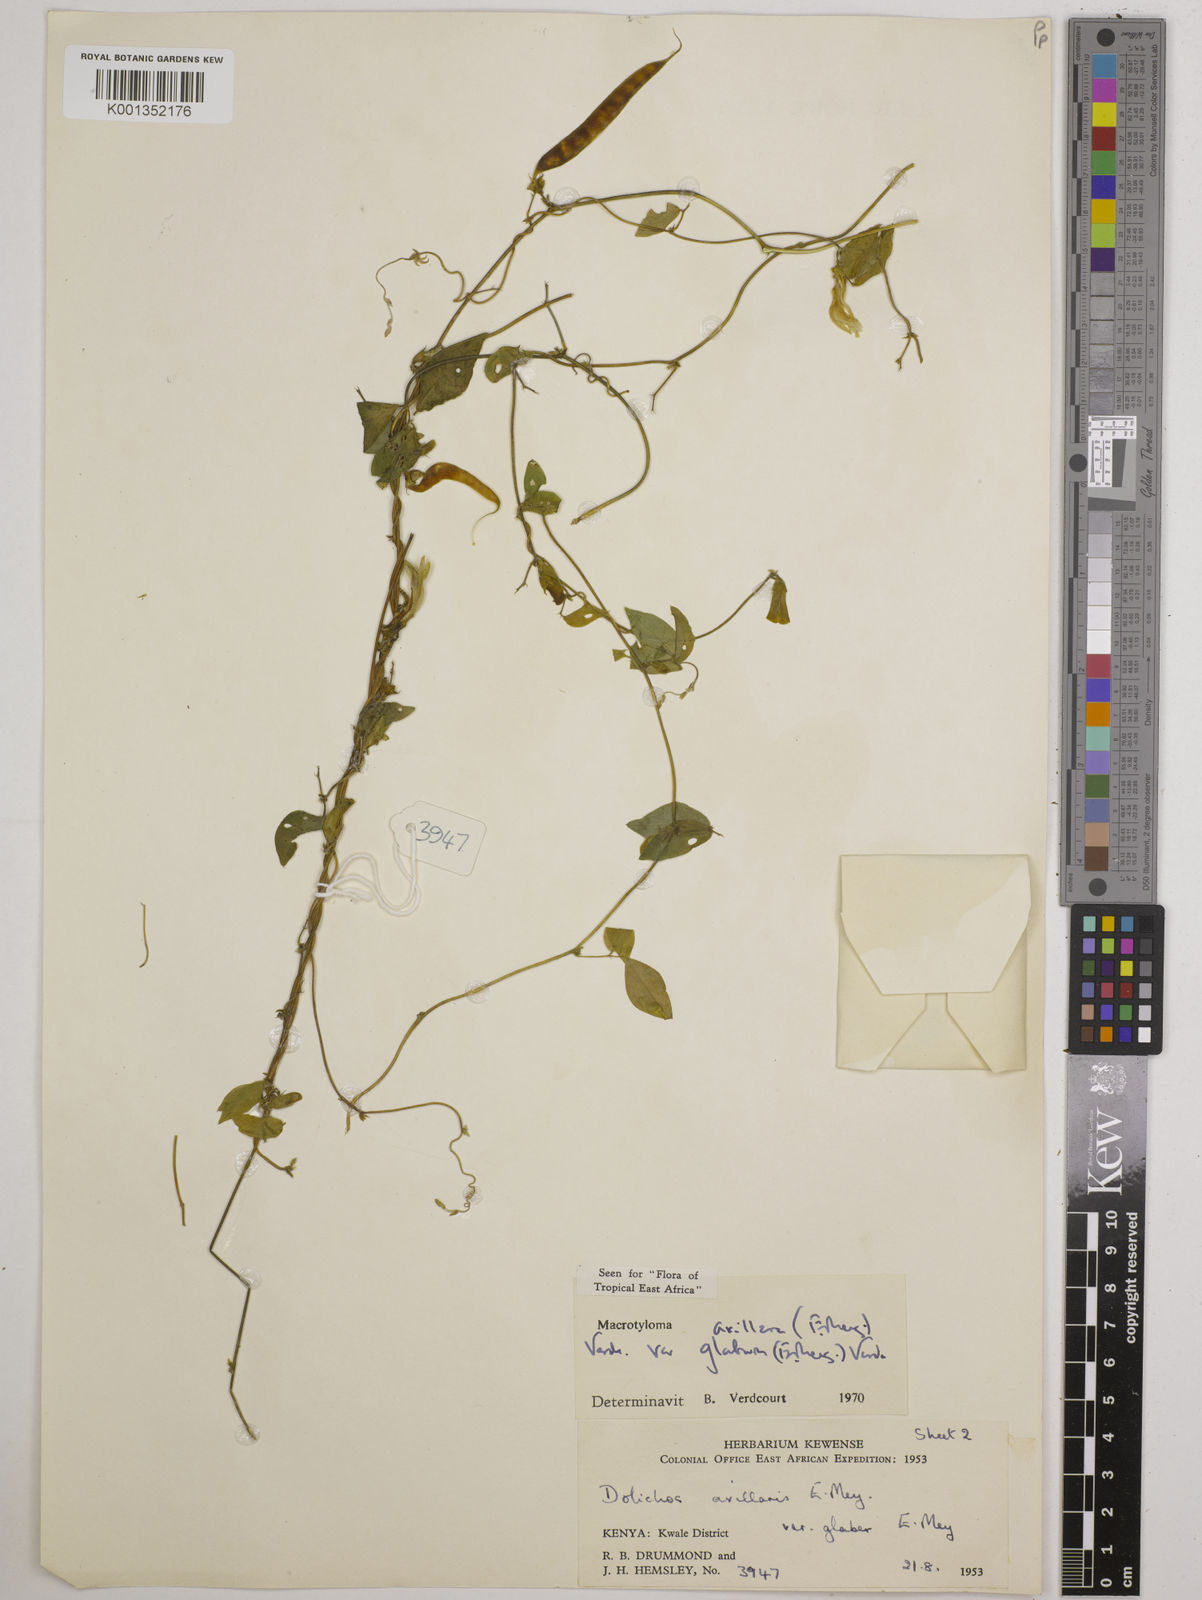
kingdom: Plantae
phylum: Tracheophyta
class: Magnoliopsida
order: Fabales
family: Fabaceae
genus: Macrotyloma
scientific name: Macrotyloma
